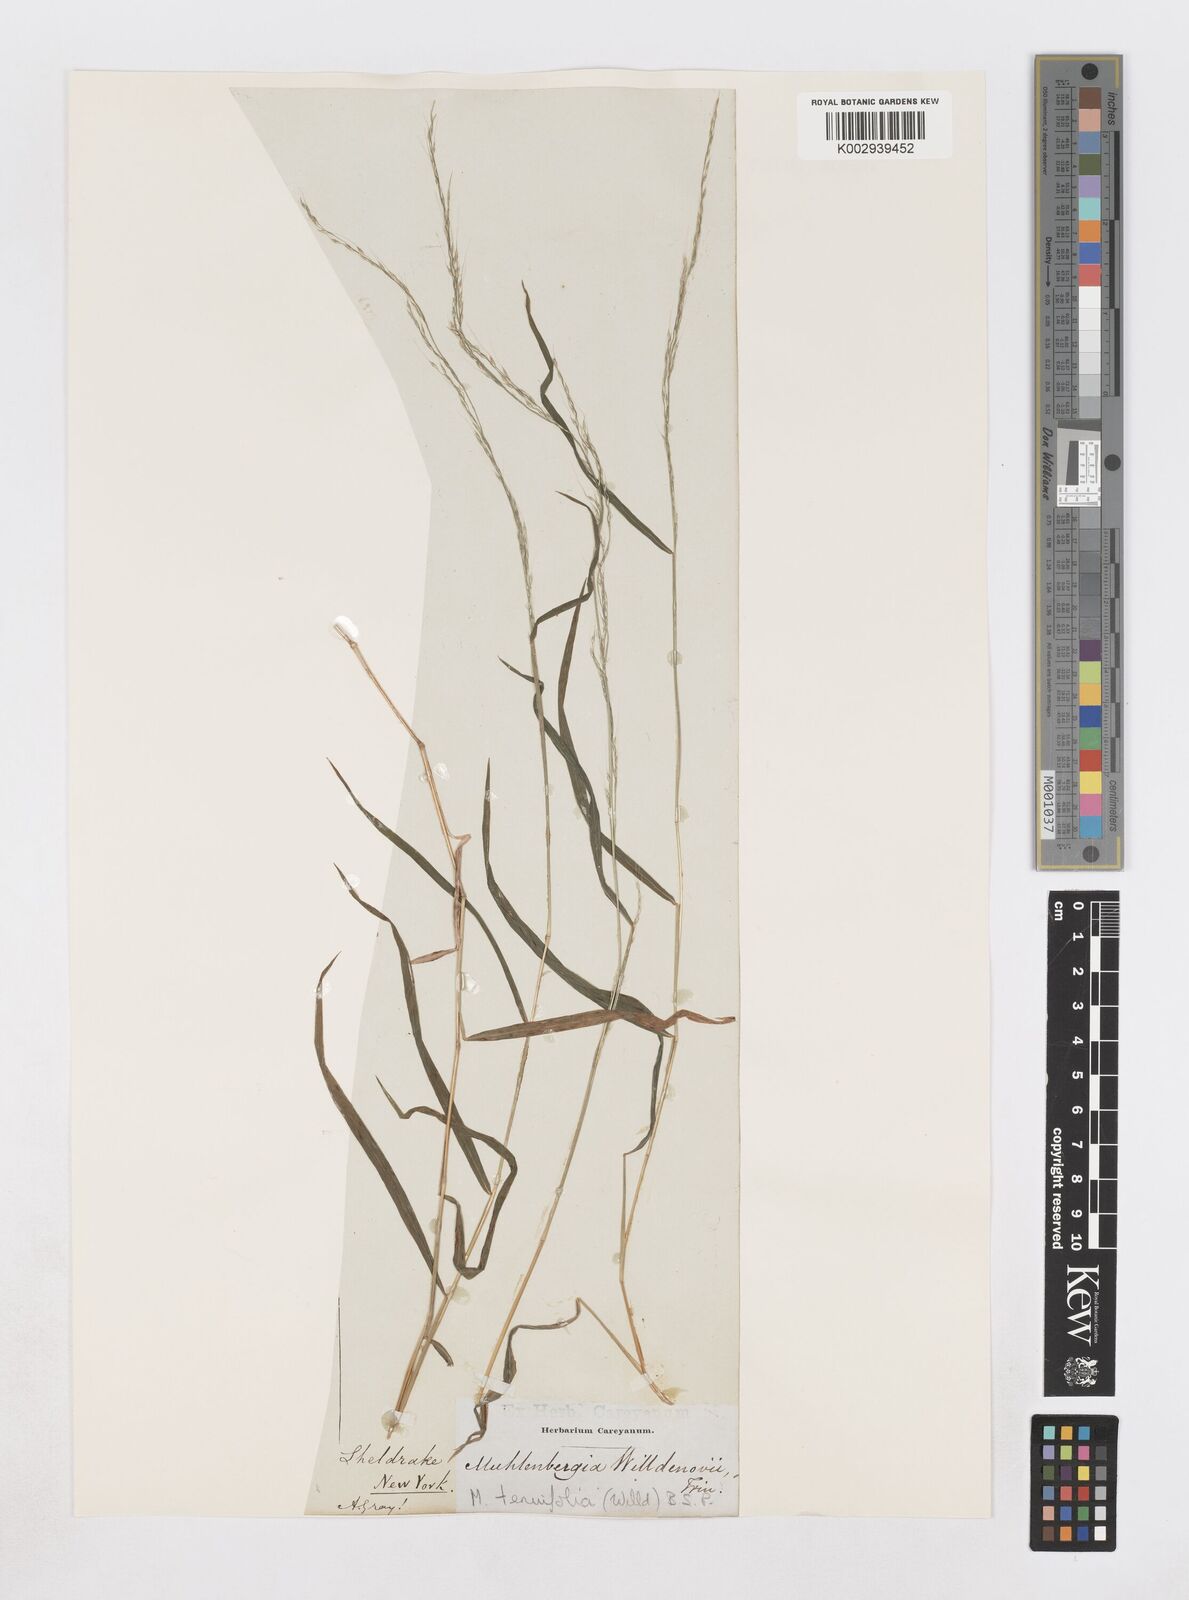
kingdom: Plantae
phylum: Tracheophyta
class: Liliopsida
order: Poales
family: Poaceae
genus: Muhlenbergia
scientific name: Muhlenbergia tenuiflora
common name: Slender muhly
